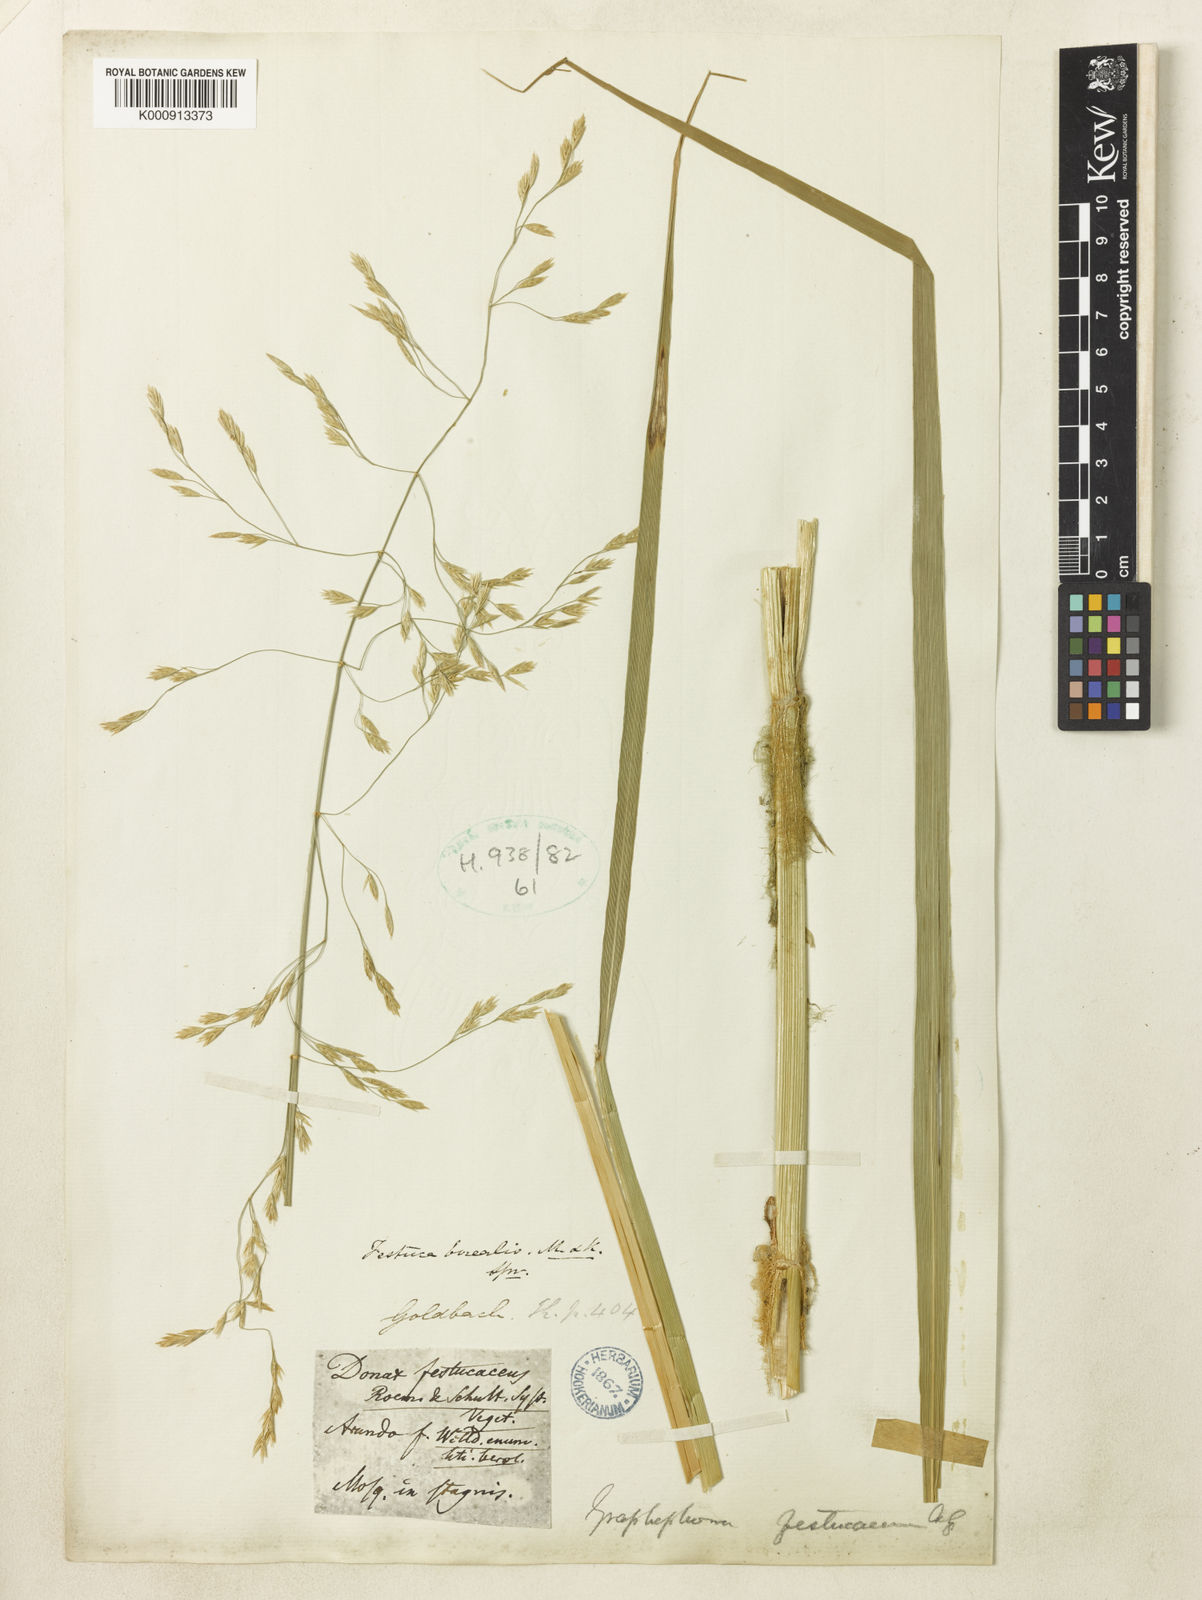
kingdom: Plantae
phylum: Tracheophyta
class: Liliopsida
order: Poales
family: Poaceae
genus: Scolochloa
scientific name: Scolochloa festucacea
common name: Common rivergrass
